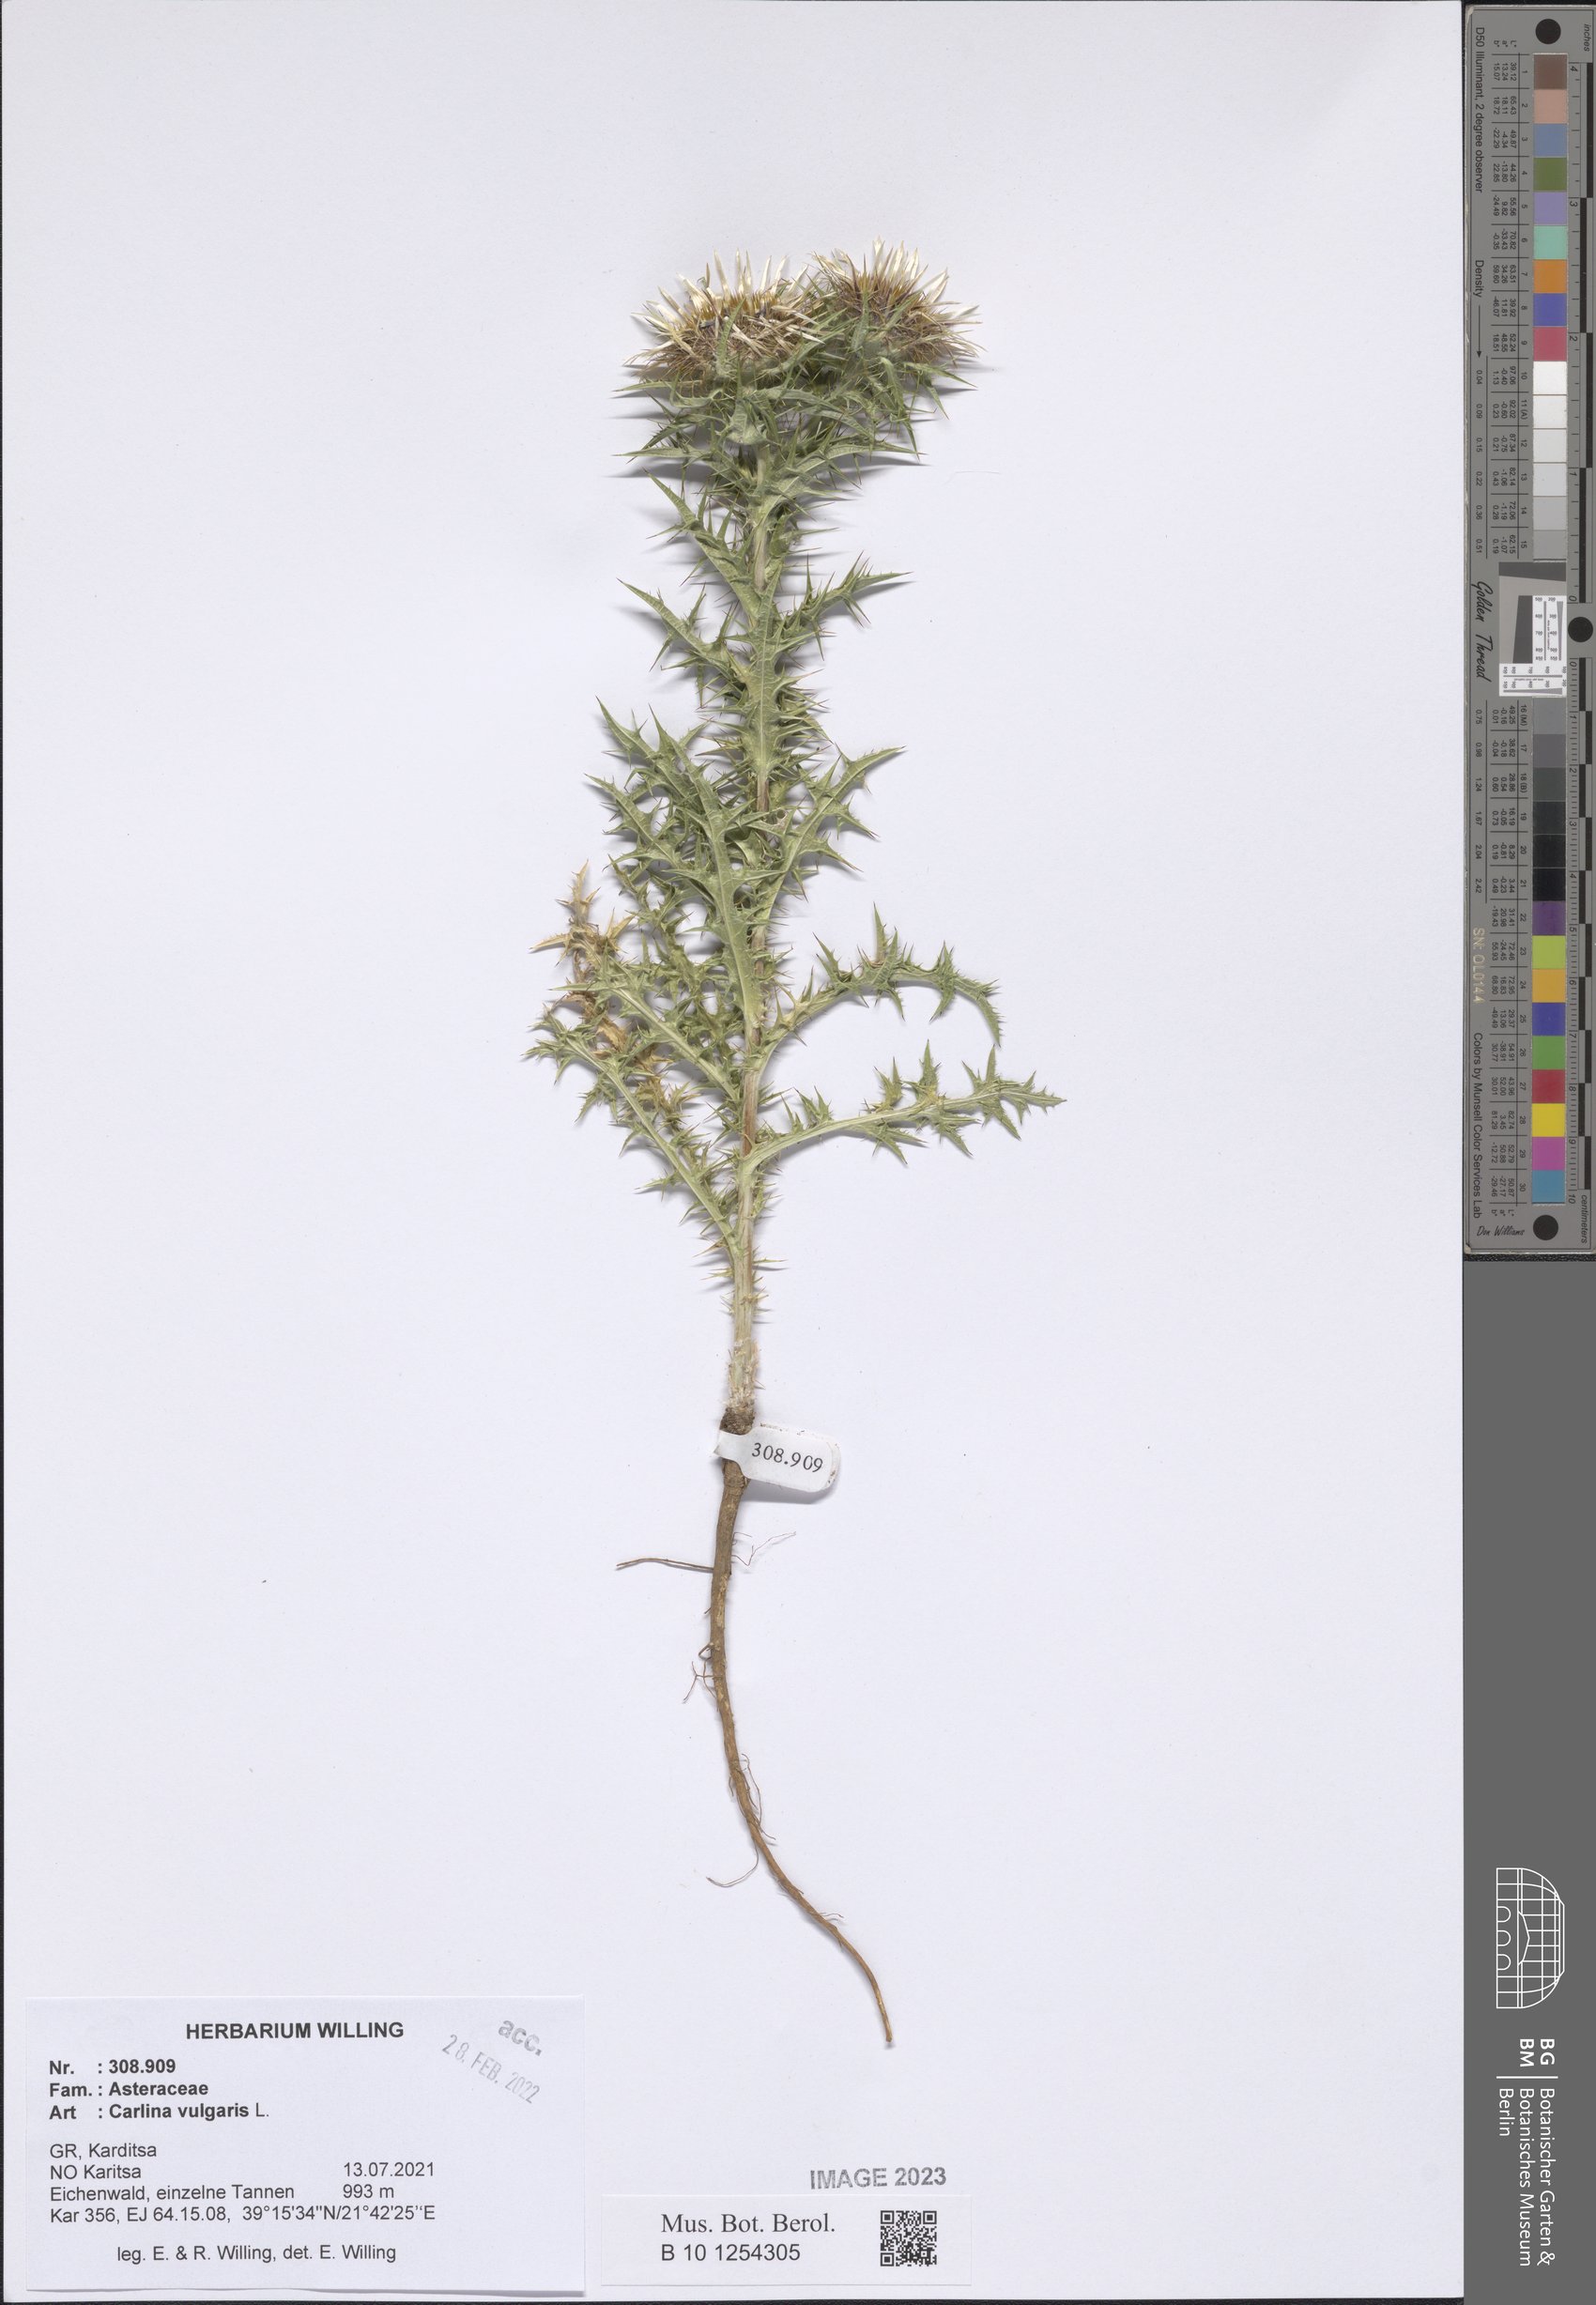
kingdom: Plantae
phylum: Tracheophyta
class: Magnoliopsida
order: Asterales
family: Asteraceae
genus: Carlina
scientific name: Carlina vulgaris
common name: Carline thistle
